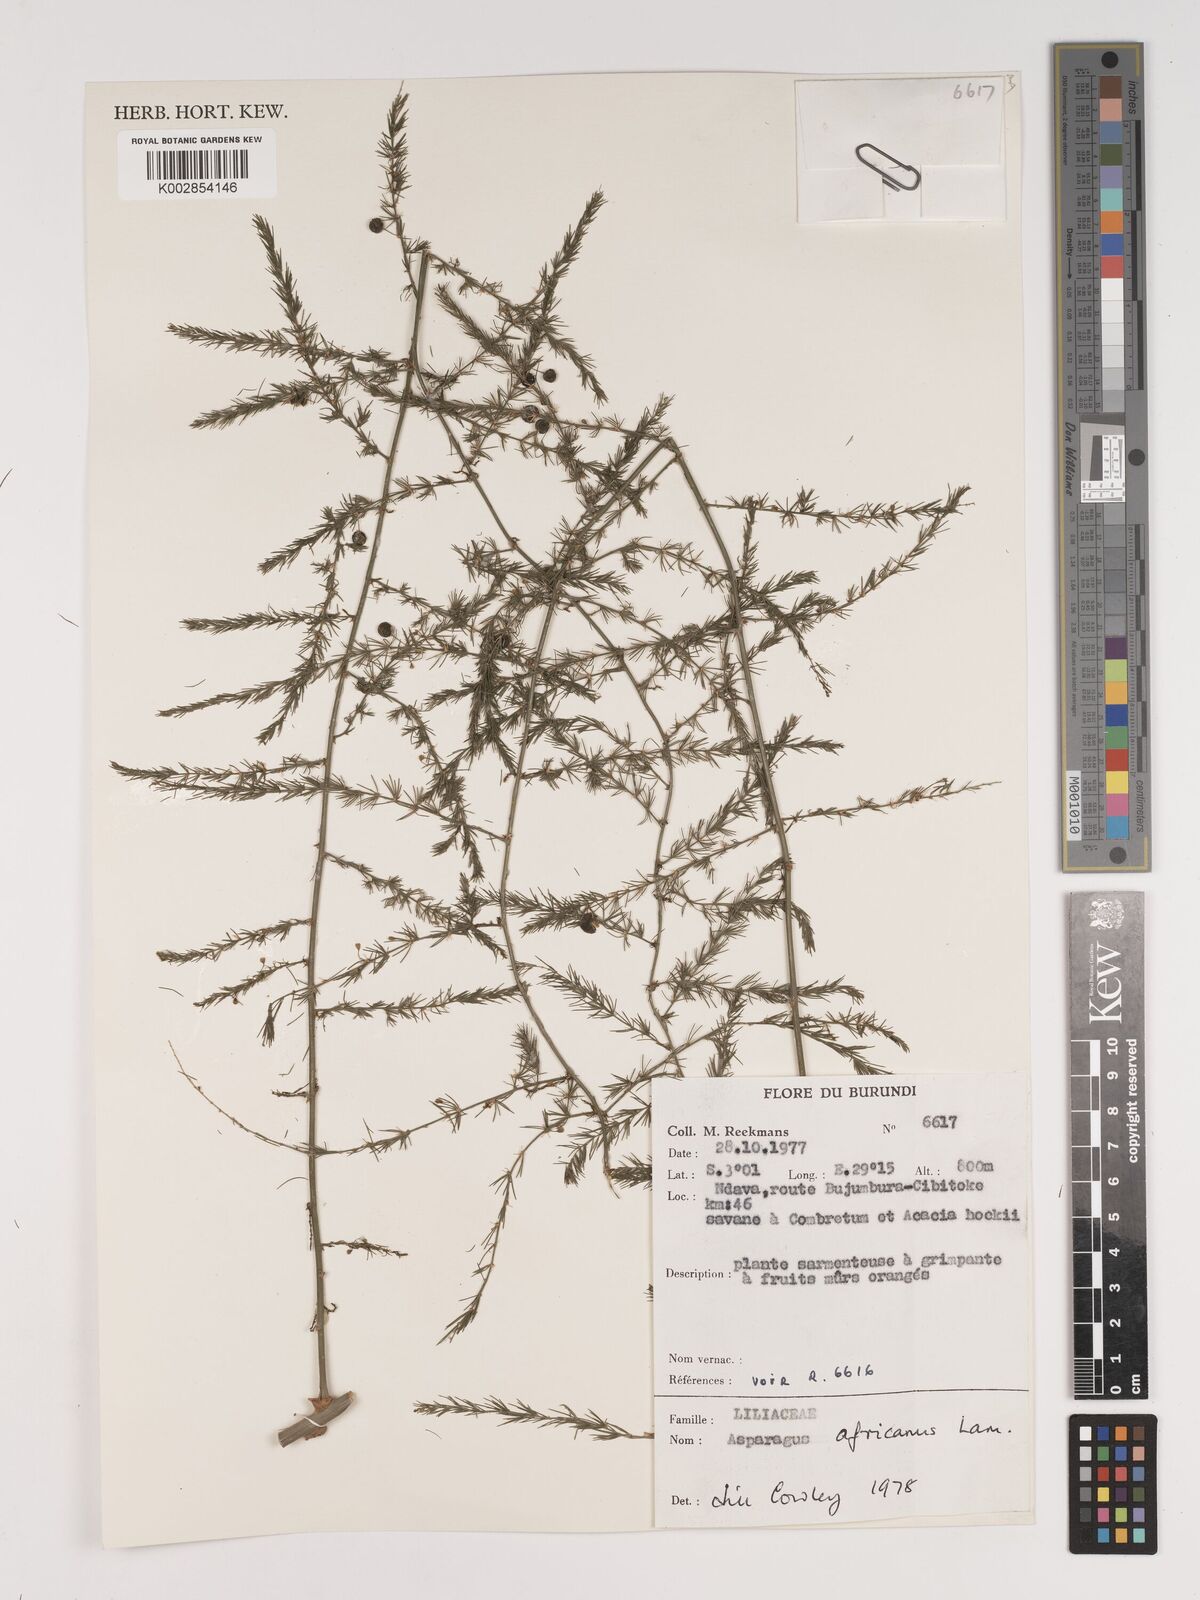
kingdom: Plantae
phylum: Tracheophyta
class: Liliopsida
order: Asparagales
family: Asparagaceae
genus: Asparagus
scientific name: Asparagus africanus
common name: Asparagus-fern
